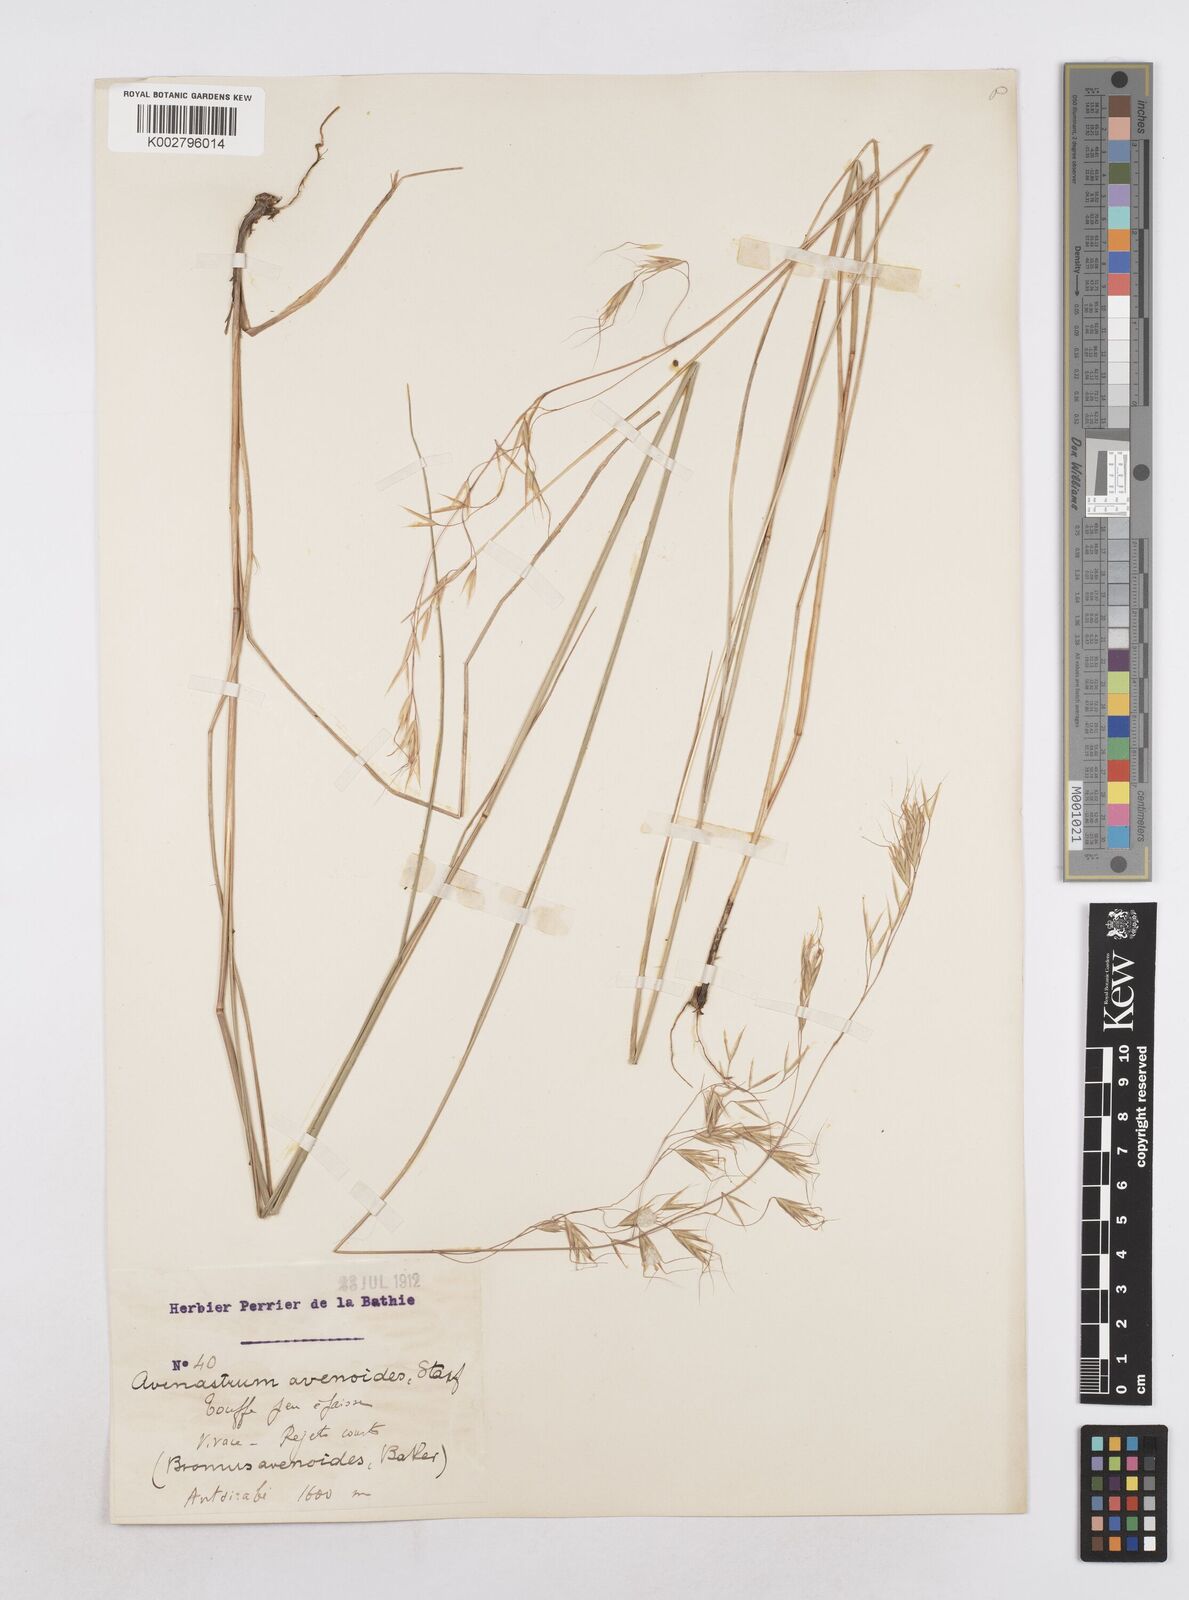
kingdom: Plantae
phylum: Tracheophyta
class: Liliopsida
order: Poales
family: Poaceae
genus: Trisetopsis
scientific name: Trisetopsis elongata
